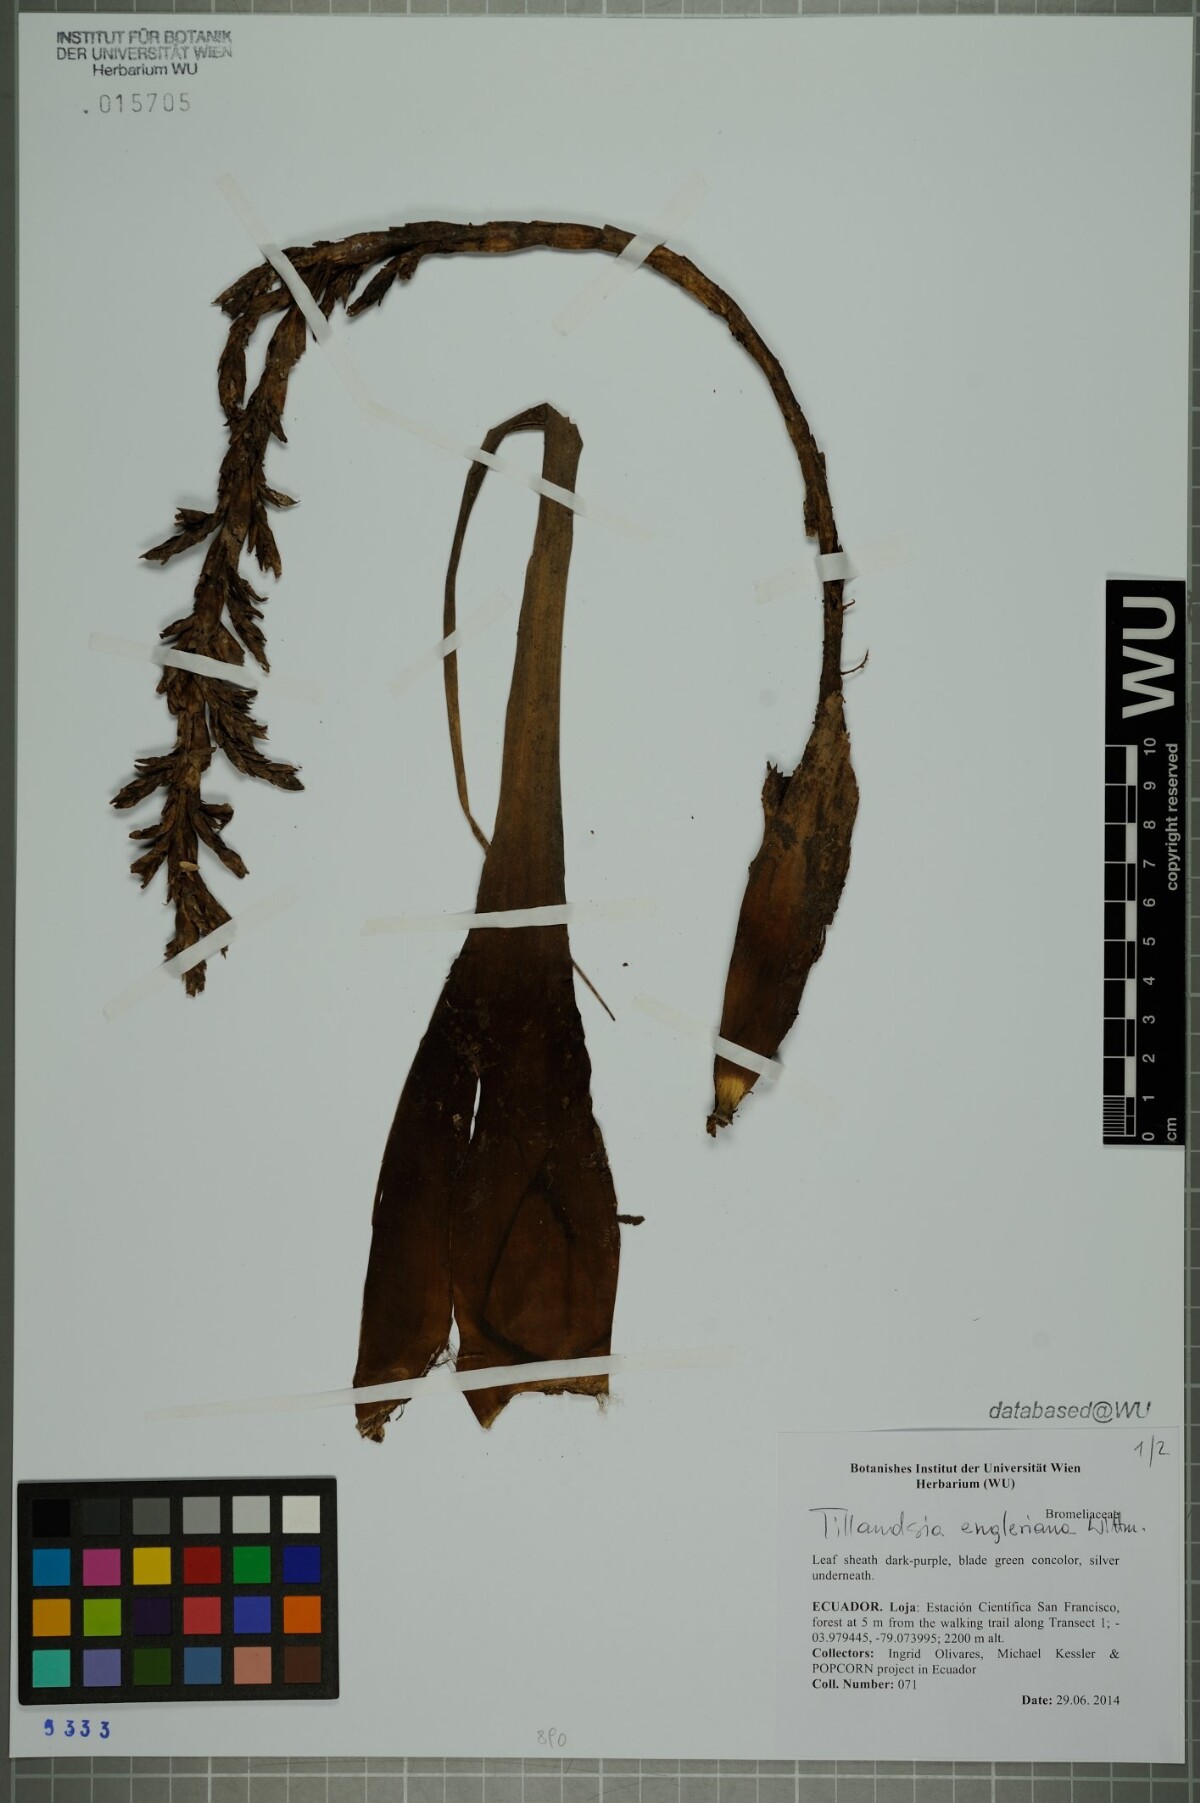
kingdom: Plantae
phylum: Tracheophyta
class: Liliopsida
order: Poales
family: Bromeliaceae
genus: Tillandsia
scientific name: Tillandsia engleriana
